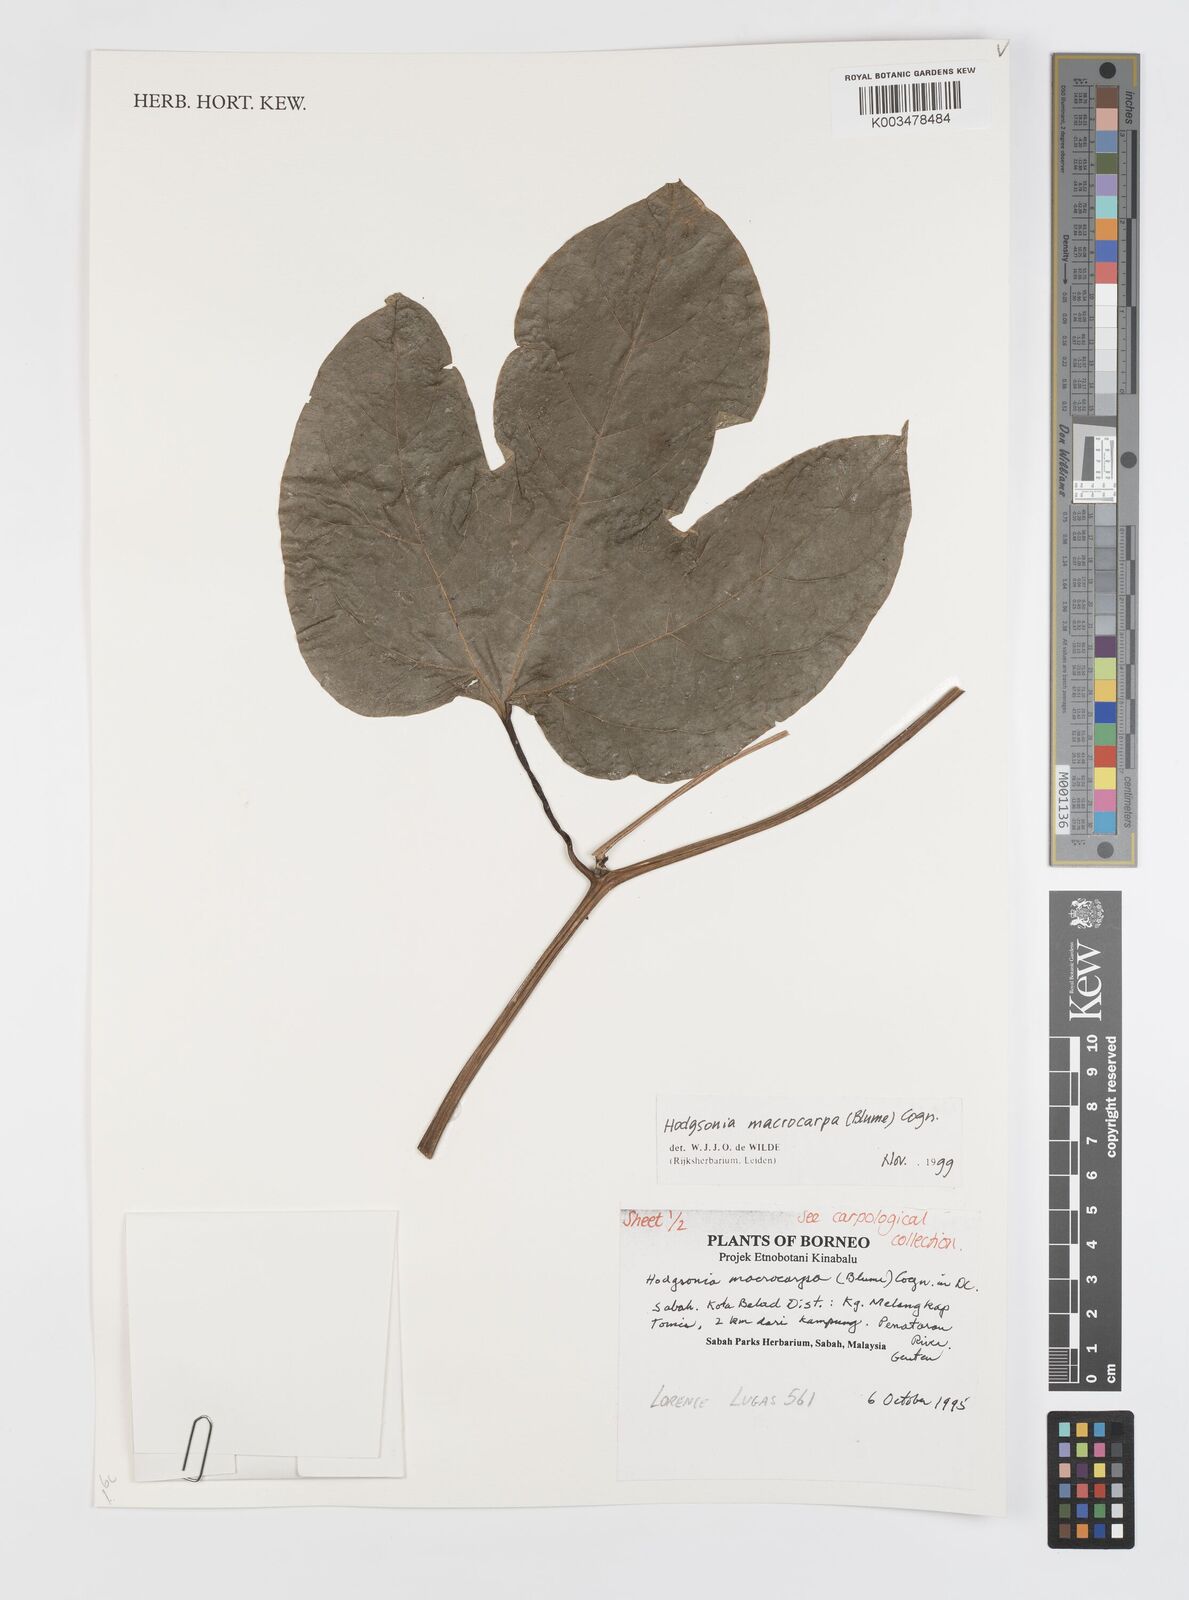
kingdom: Plantae
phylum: Tracheophyta
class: Magnoliopsida
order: Cucurbitales
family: Cucurbitaceae
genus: Hodgsonia
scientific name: Hodgsonia macrocarpa
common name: Chinese lardfruit
